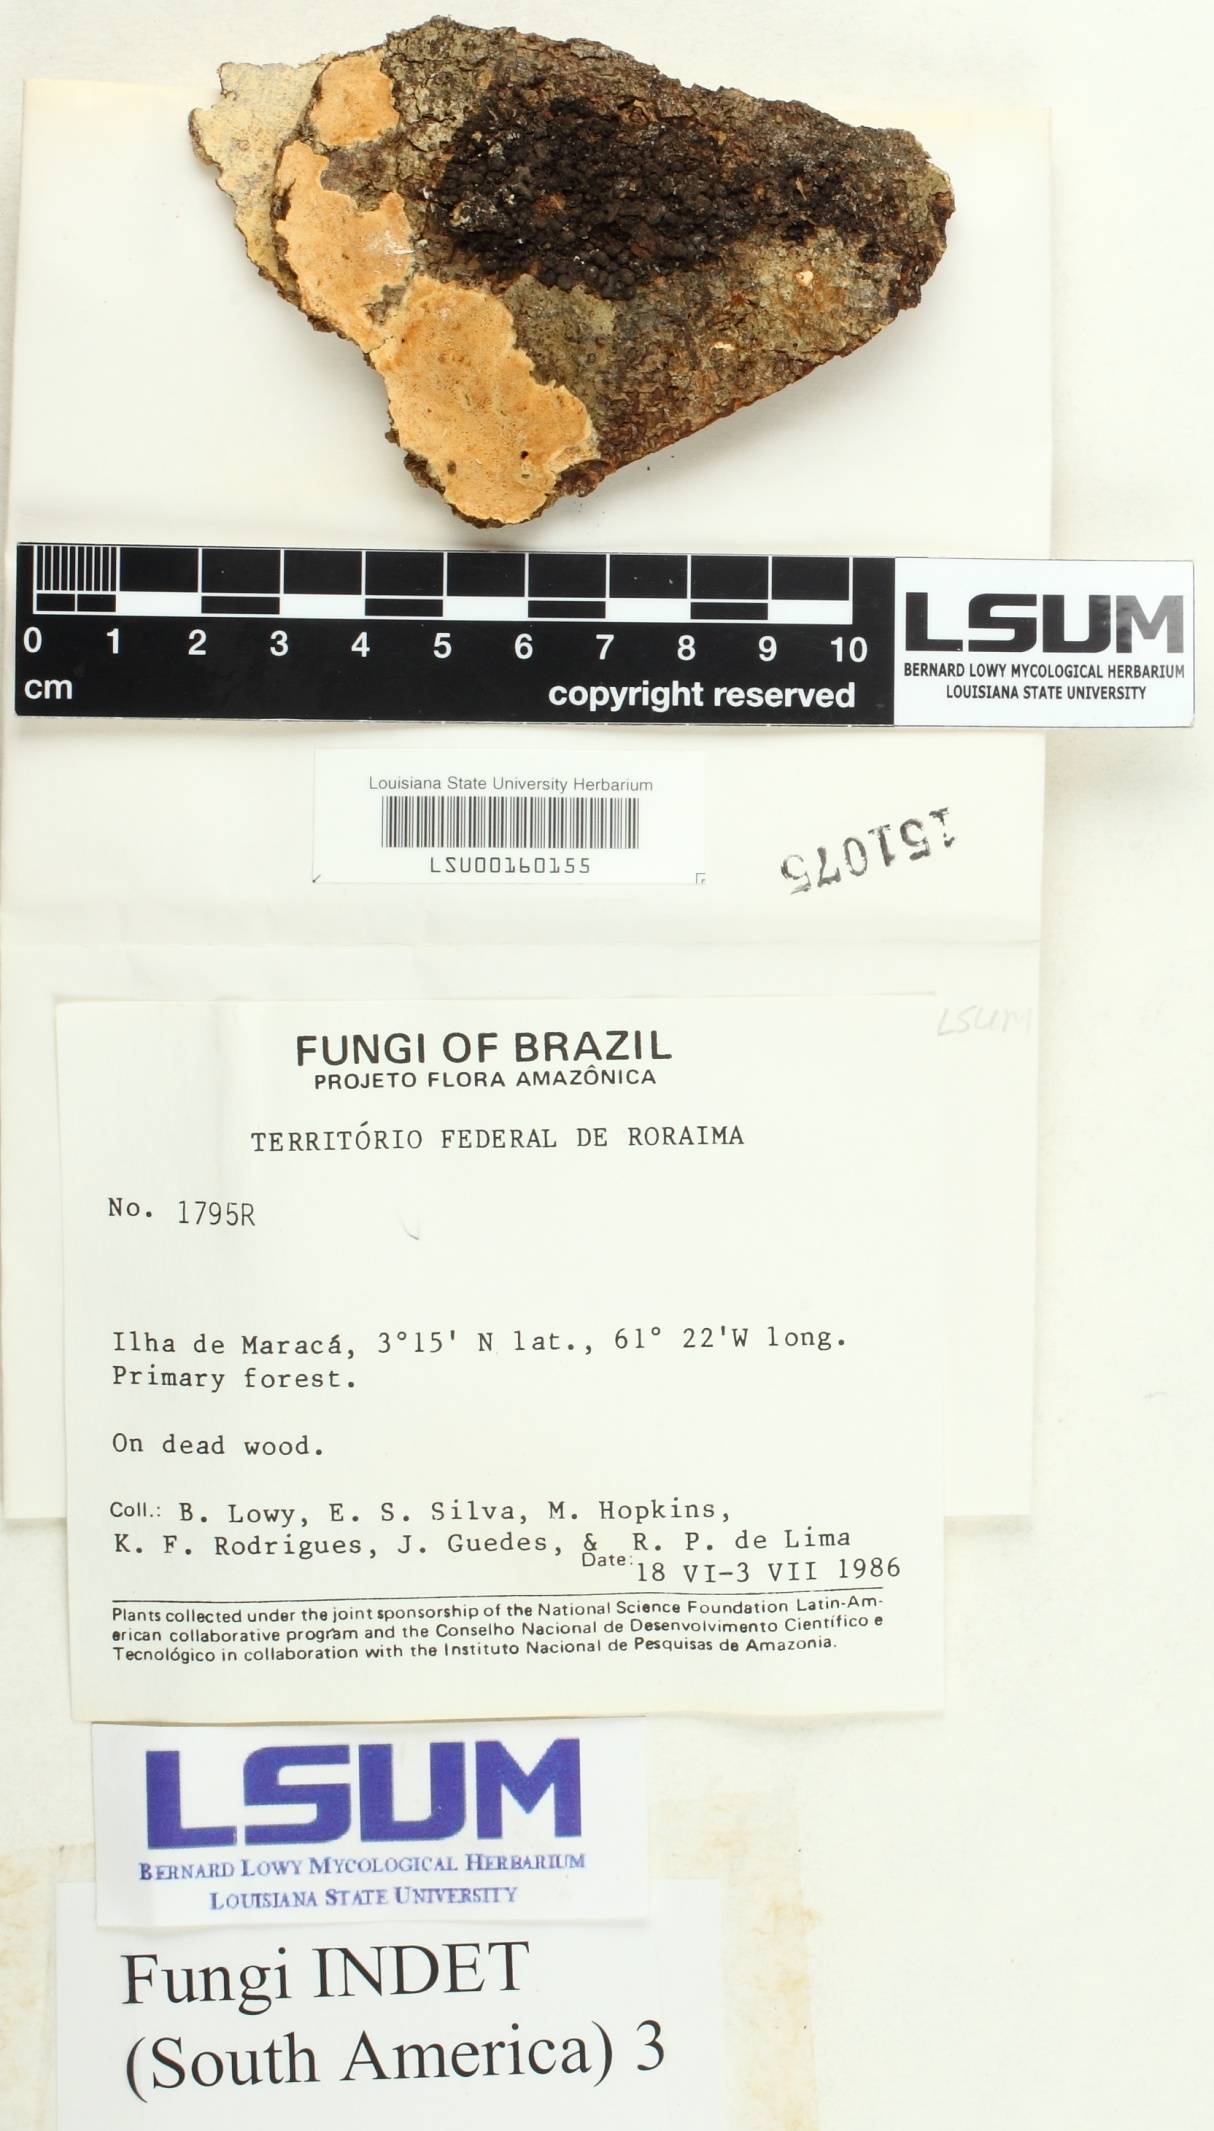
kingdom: Fungi
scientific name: Fungi
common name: Fungi
